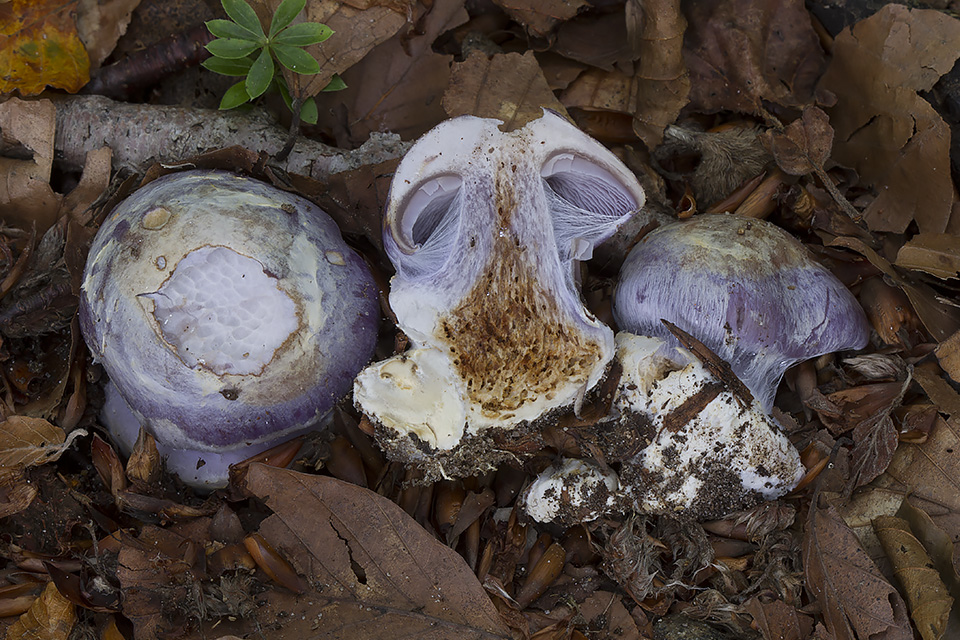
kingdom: Fungi
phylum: Basidiomycota
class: Agaricomycetes
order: Agaricales
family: Cortinariaceae
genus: Cortinarius
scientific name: Cortinarius caerulescens
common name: blåkødet slørhat
